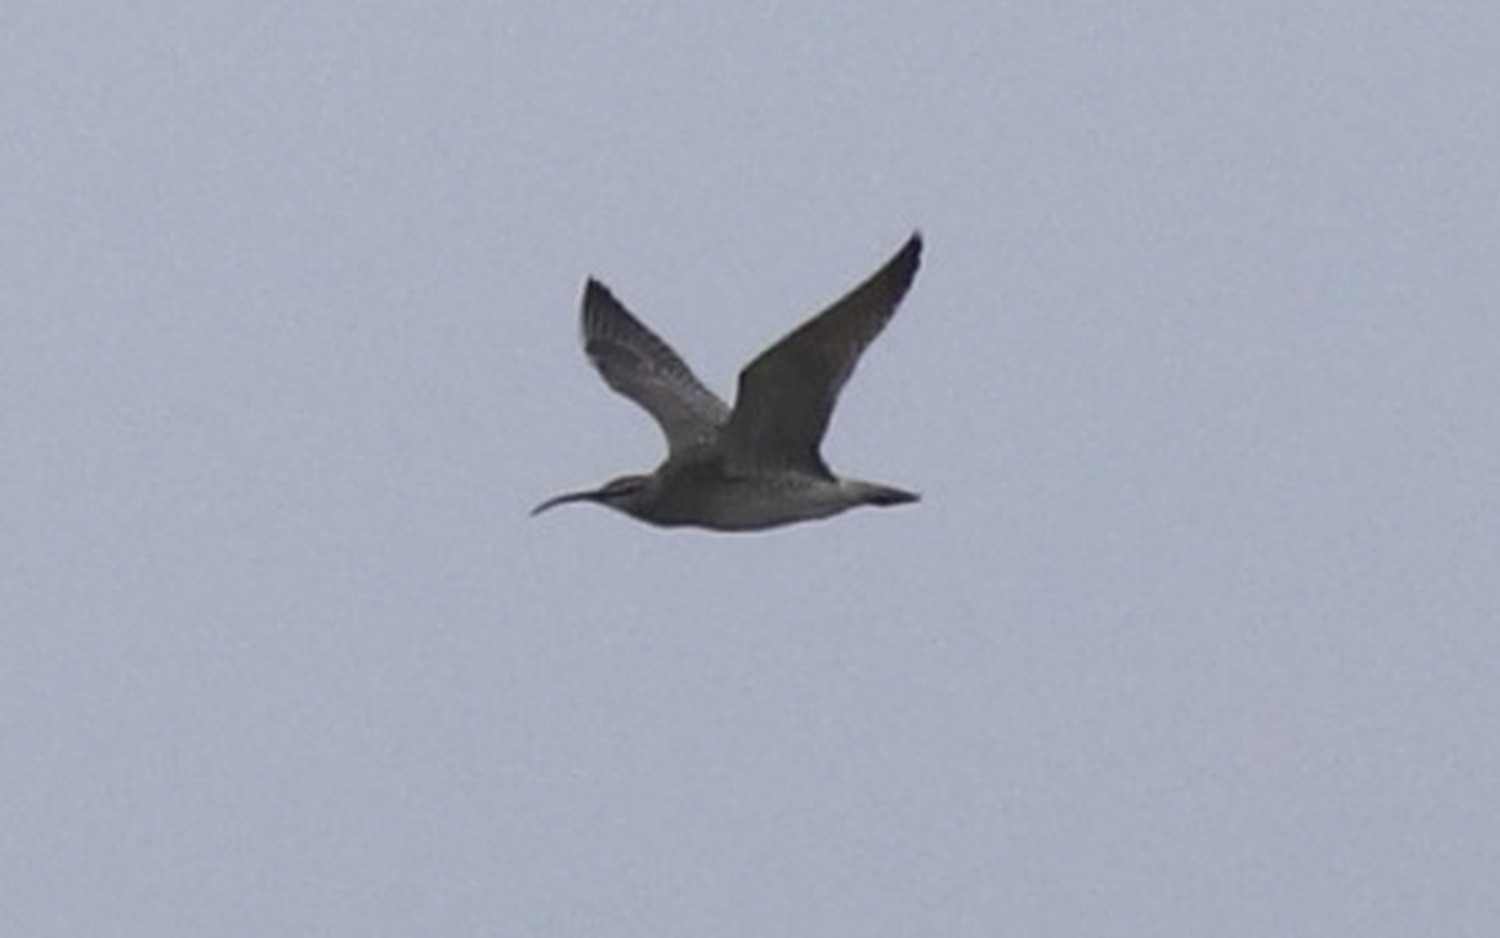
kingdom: Animalia
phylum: Chordata
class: Aves
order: Charadriiformes
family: Scolopacidae
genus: Numenius
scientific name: Numenius arquata
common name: Storspove
